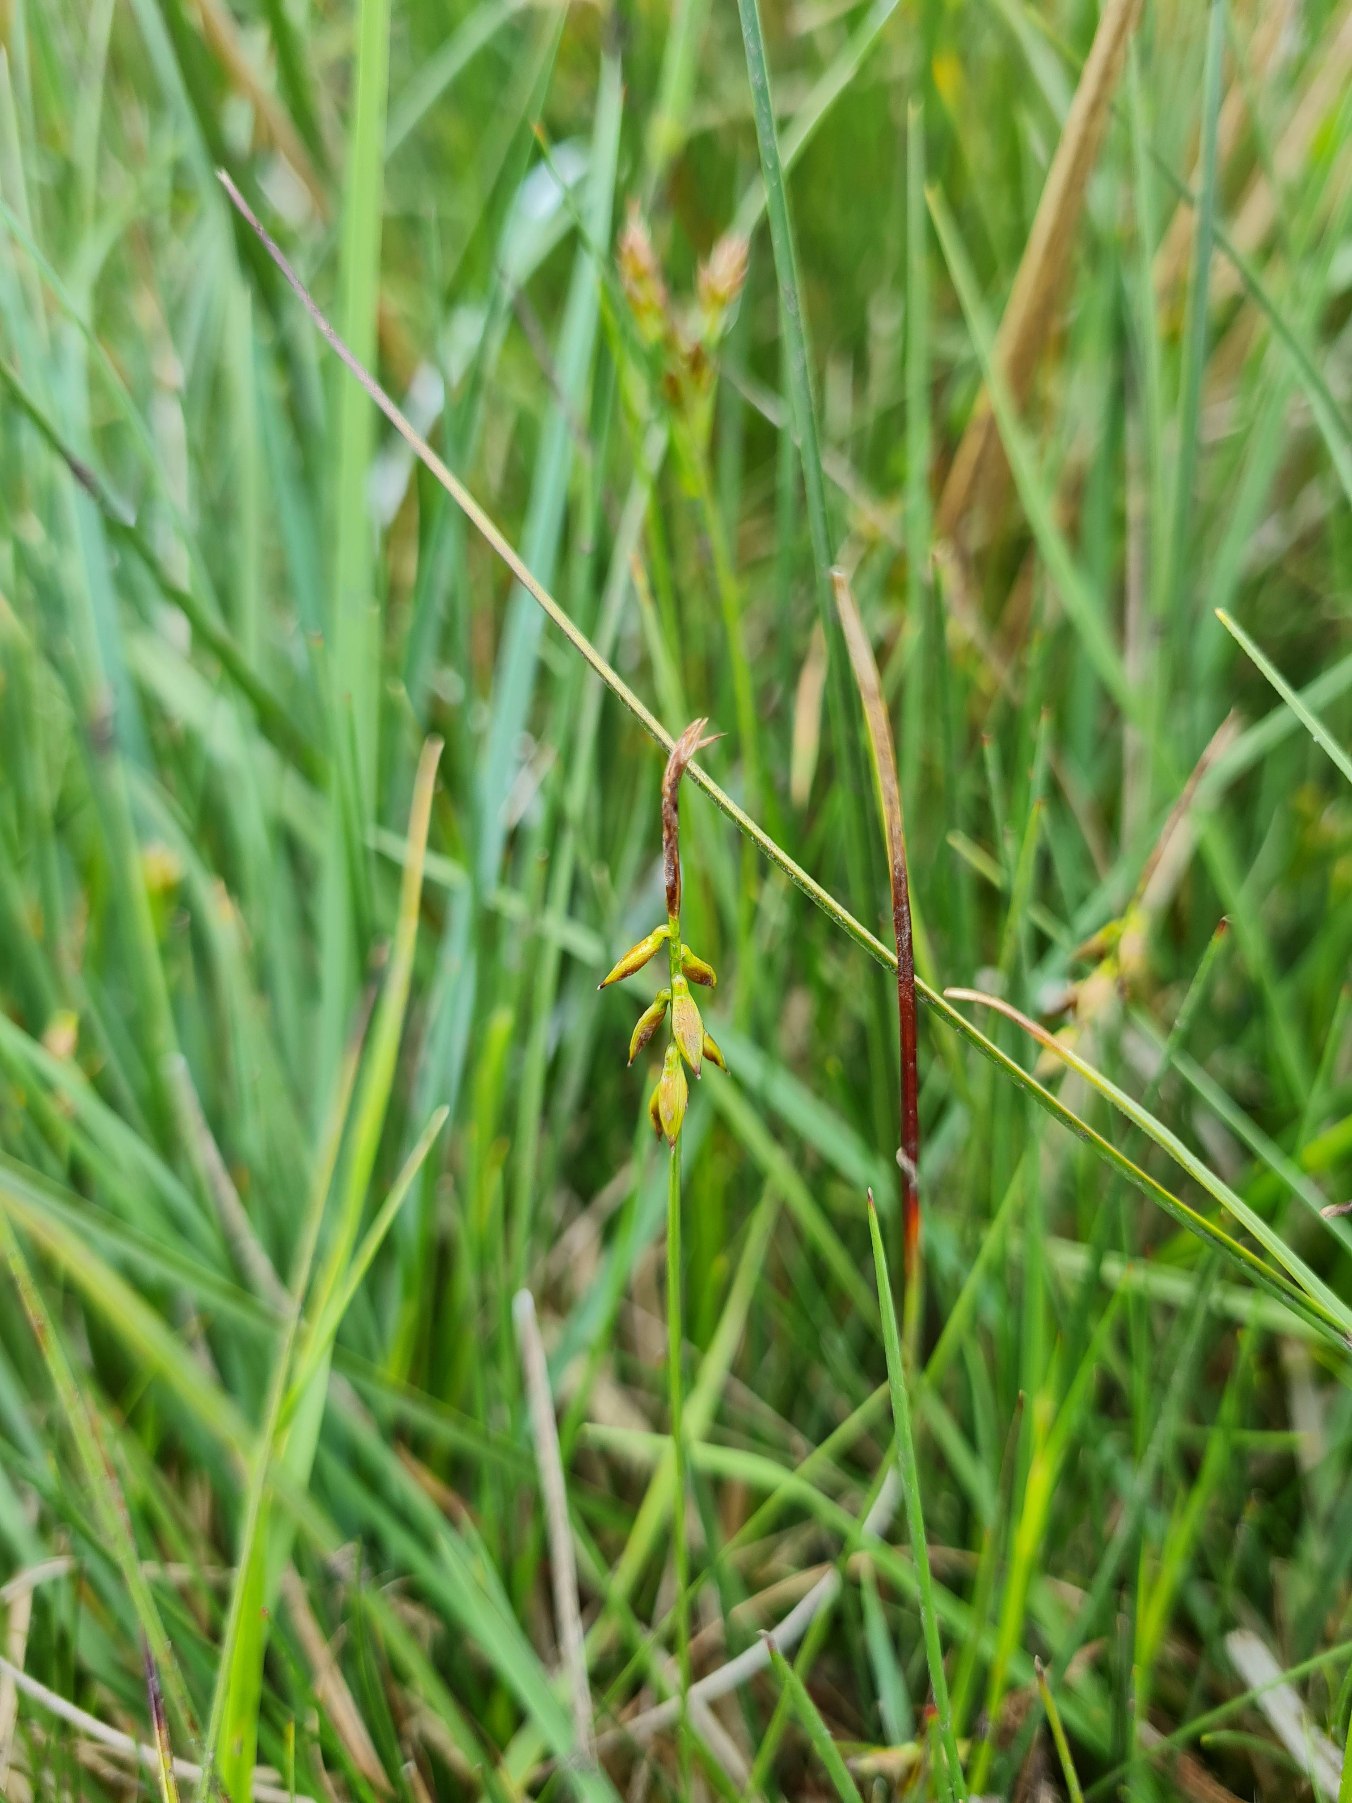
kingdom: Plantae
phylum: Tracheophyta
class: Liliopsida
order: Poales
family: Cyperaceae
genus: Carex
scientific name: Carex pulicaris
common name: Loppe-star
